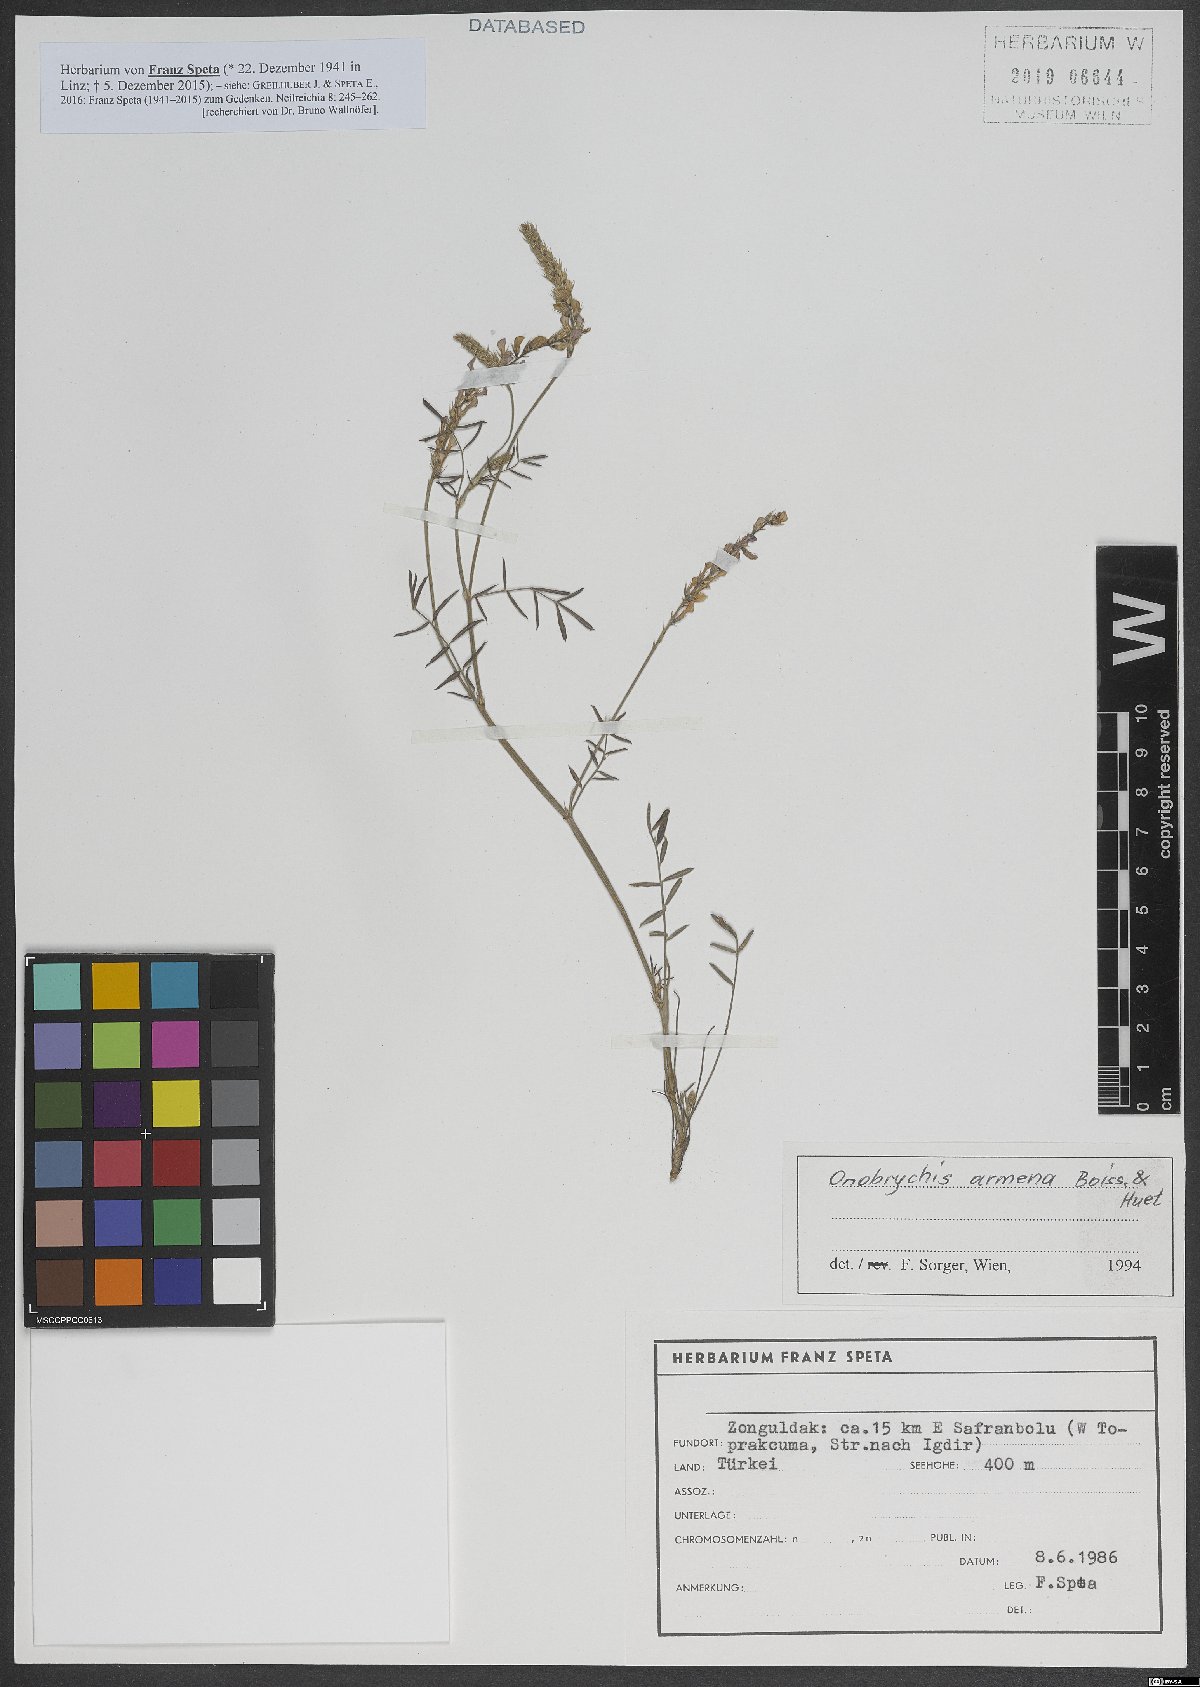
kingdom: Plantae
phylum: Tracheophyta
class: Magnoliopsida
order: Fabales
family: Fabaceae
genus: Onobrychis
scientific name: Onobrychis arenaria
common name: Sand esparcet
